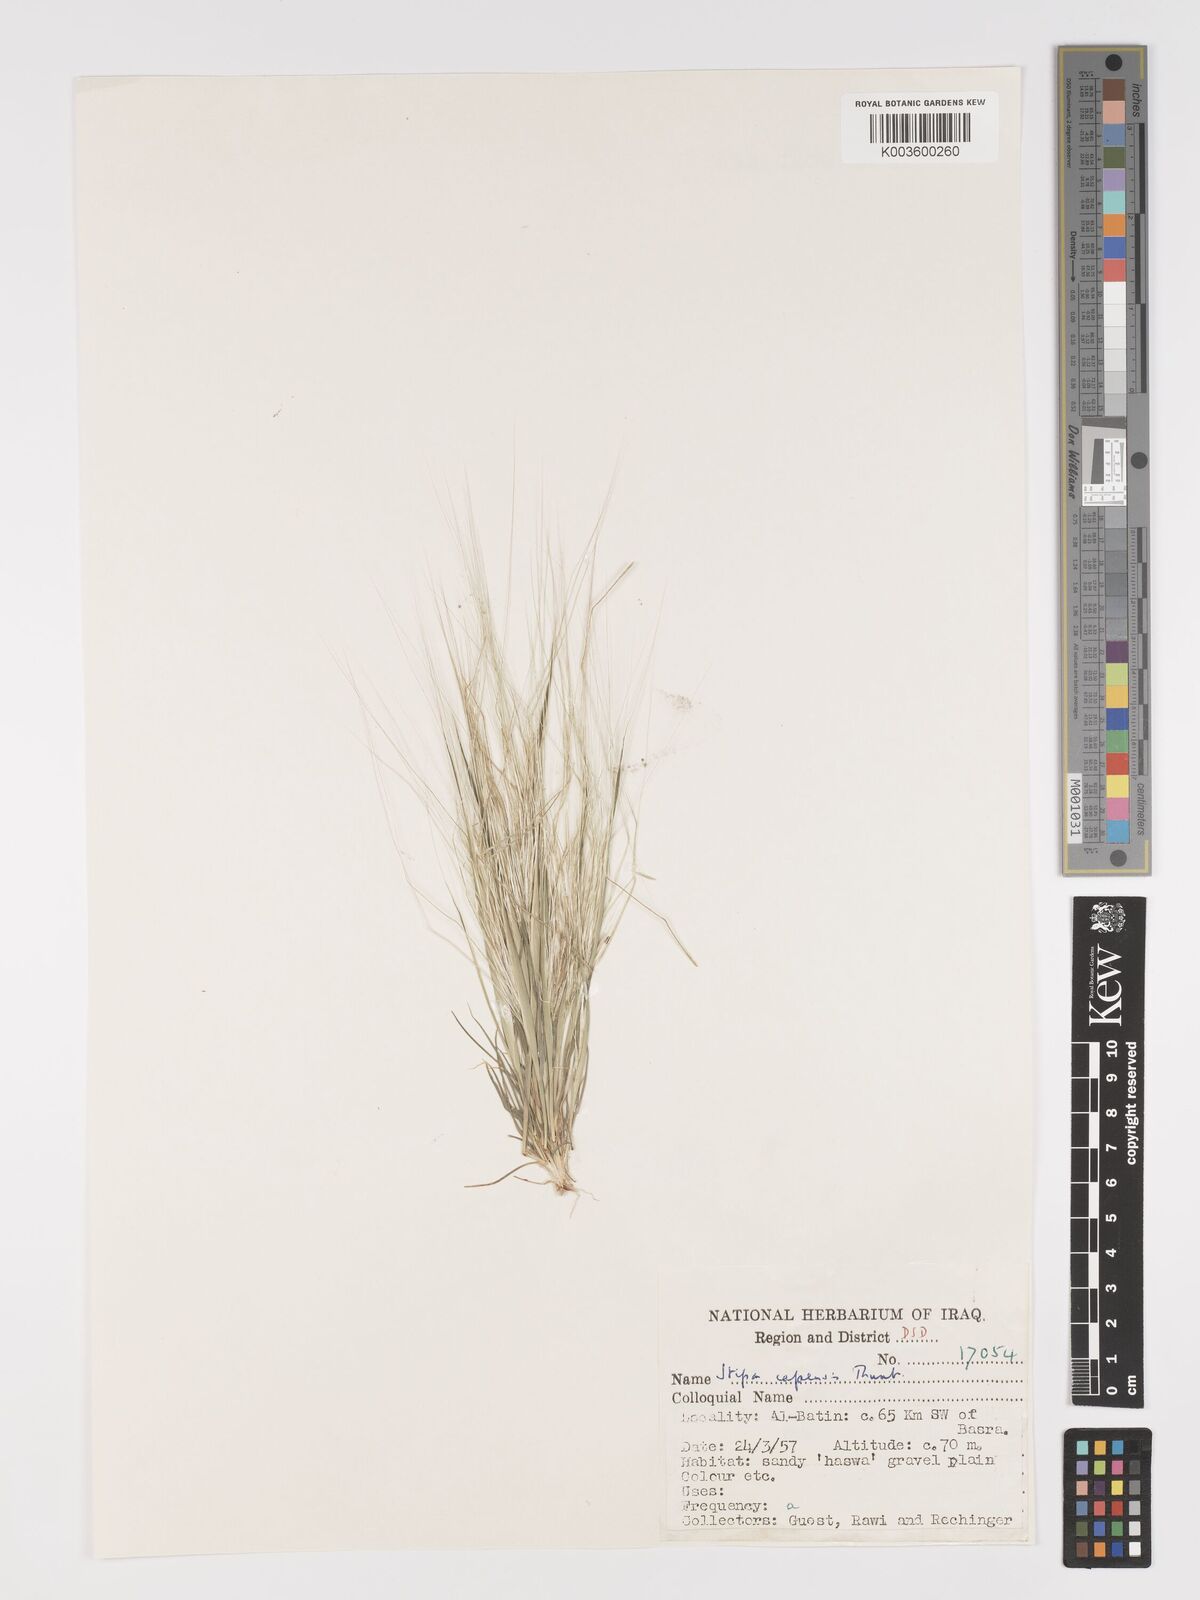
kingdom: Plantae
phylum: Tracheophyta
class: Liliopsida
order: Poales
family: Poaceae
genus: Stipellula
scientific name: Stipellula capensis
